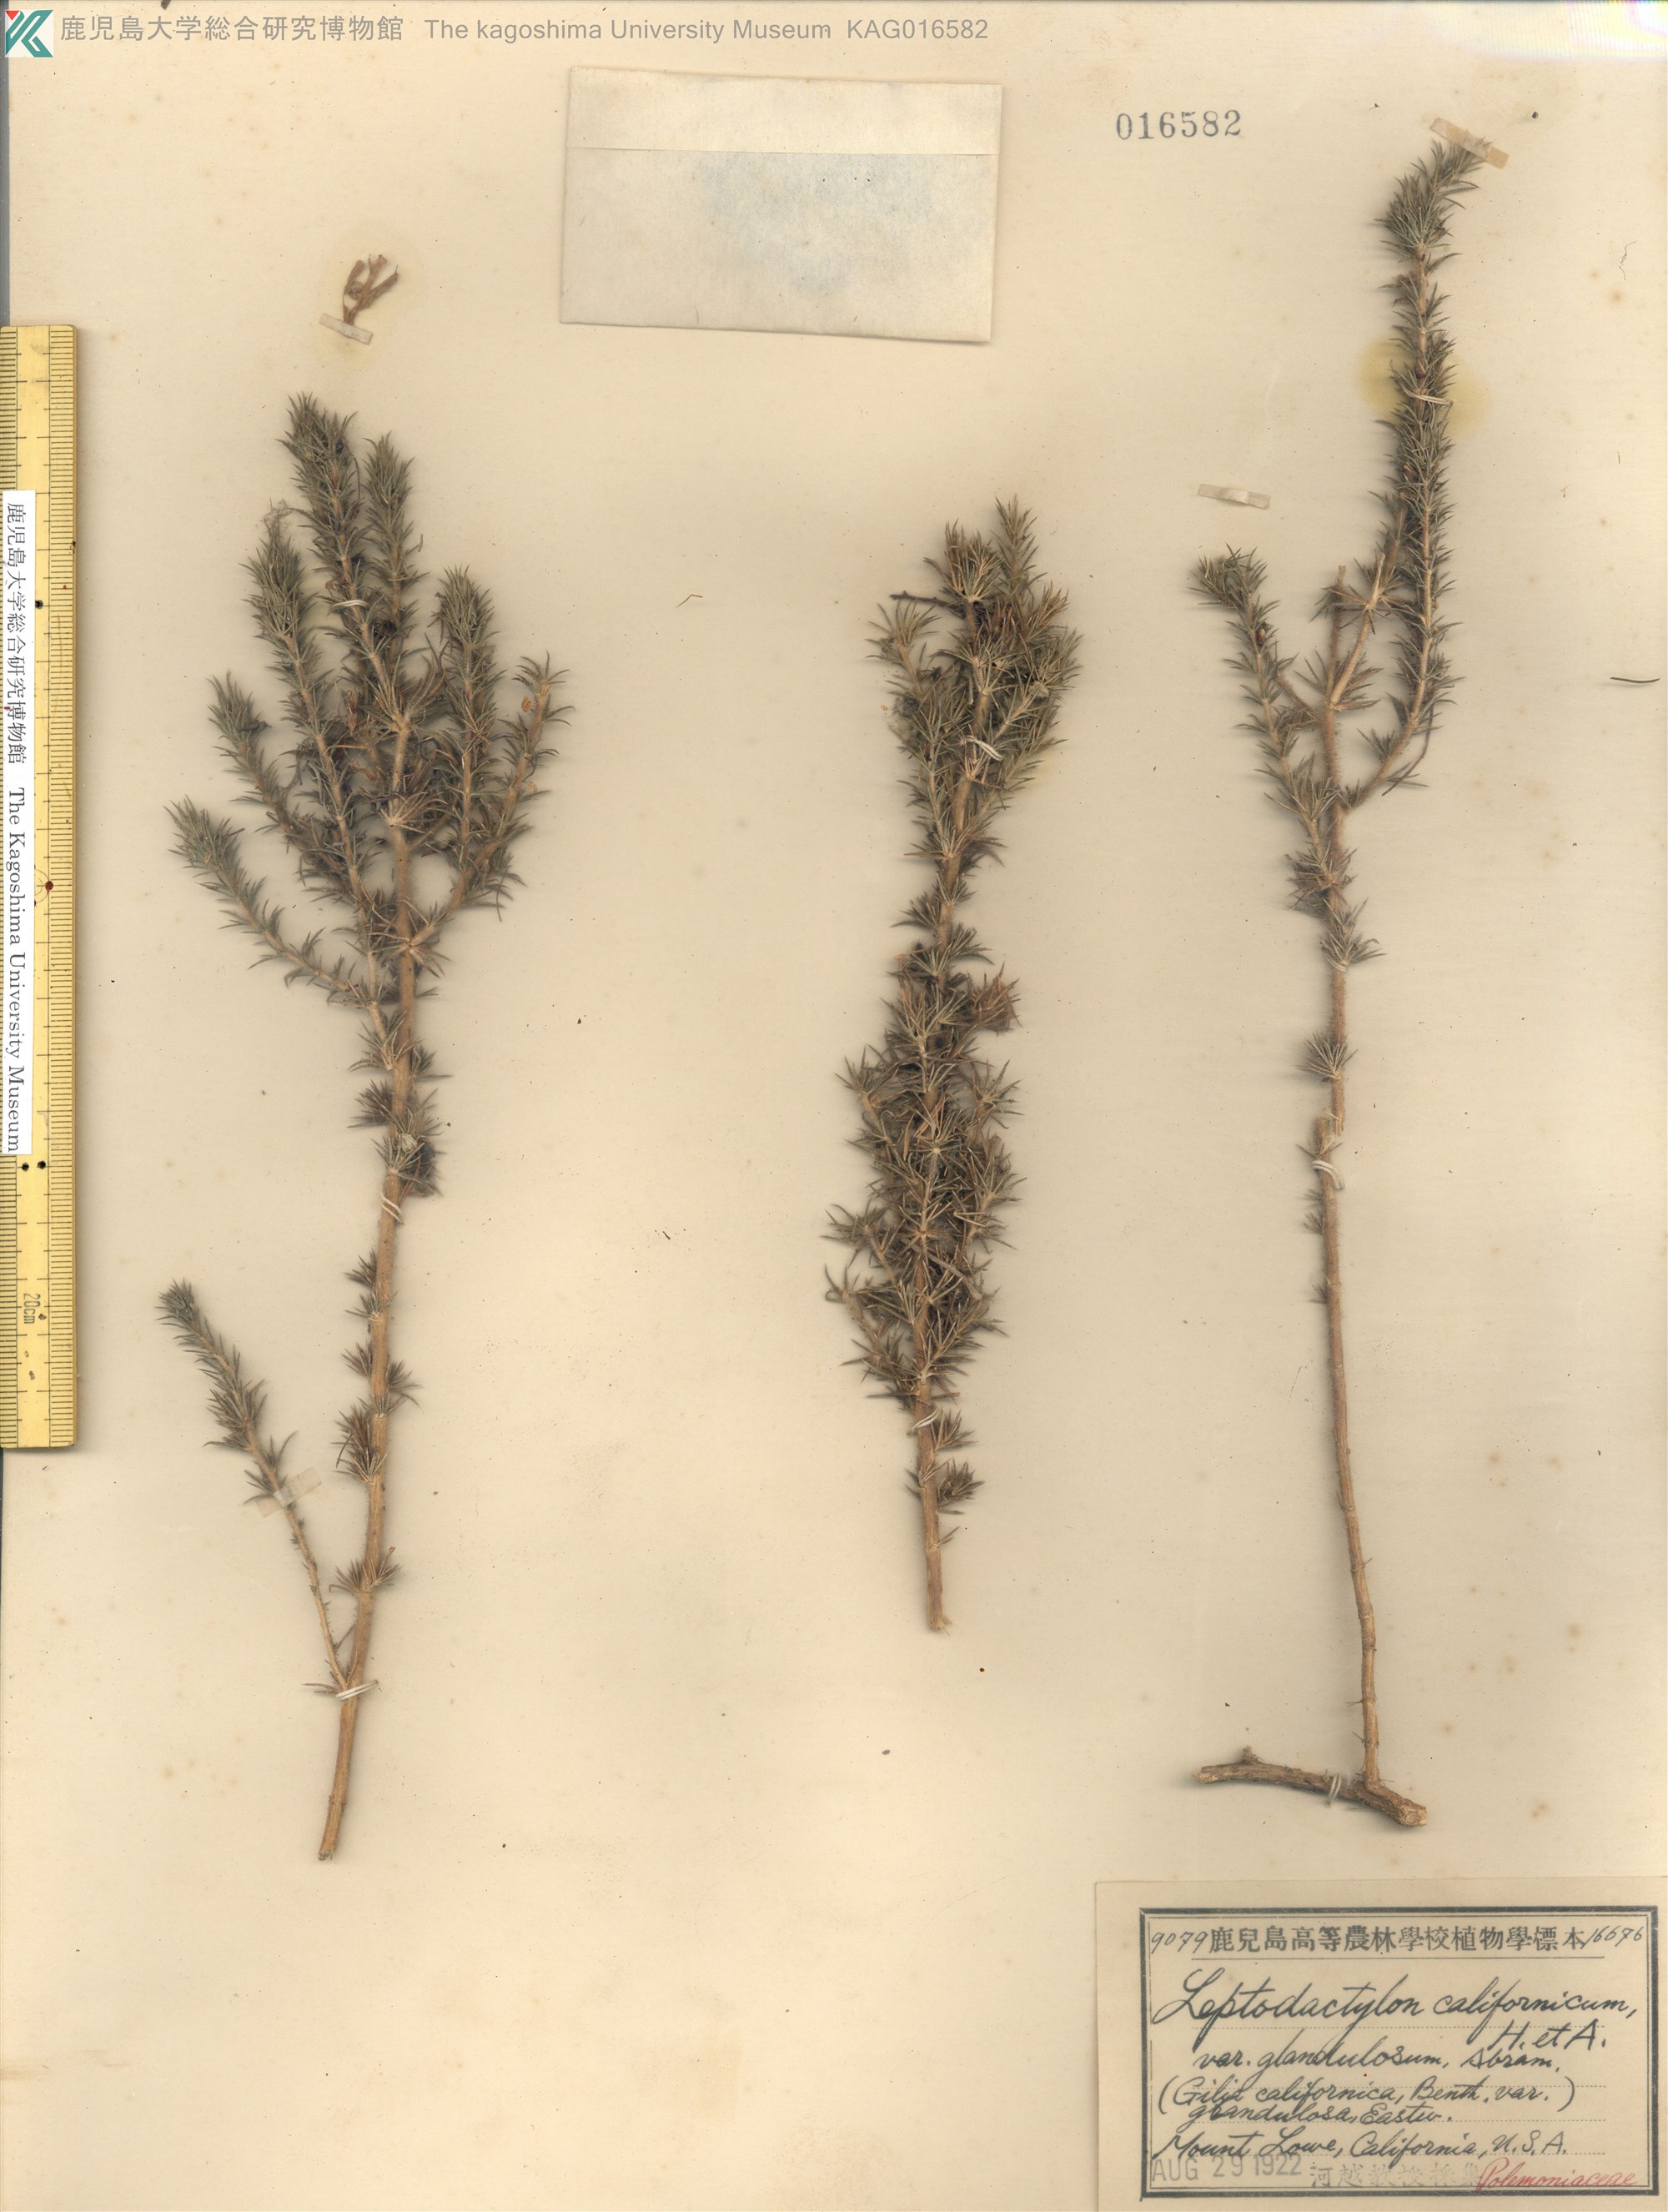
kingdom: Plantae
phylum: Tracheophyta
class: Magnoliopsida
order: Ericales
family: Polemoniaceae
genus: Linanthus
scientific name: Linanthus californicus
